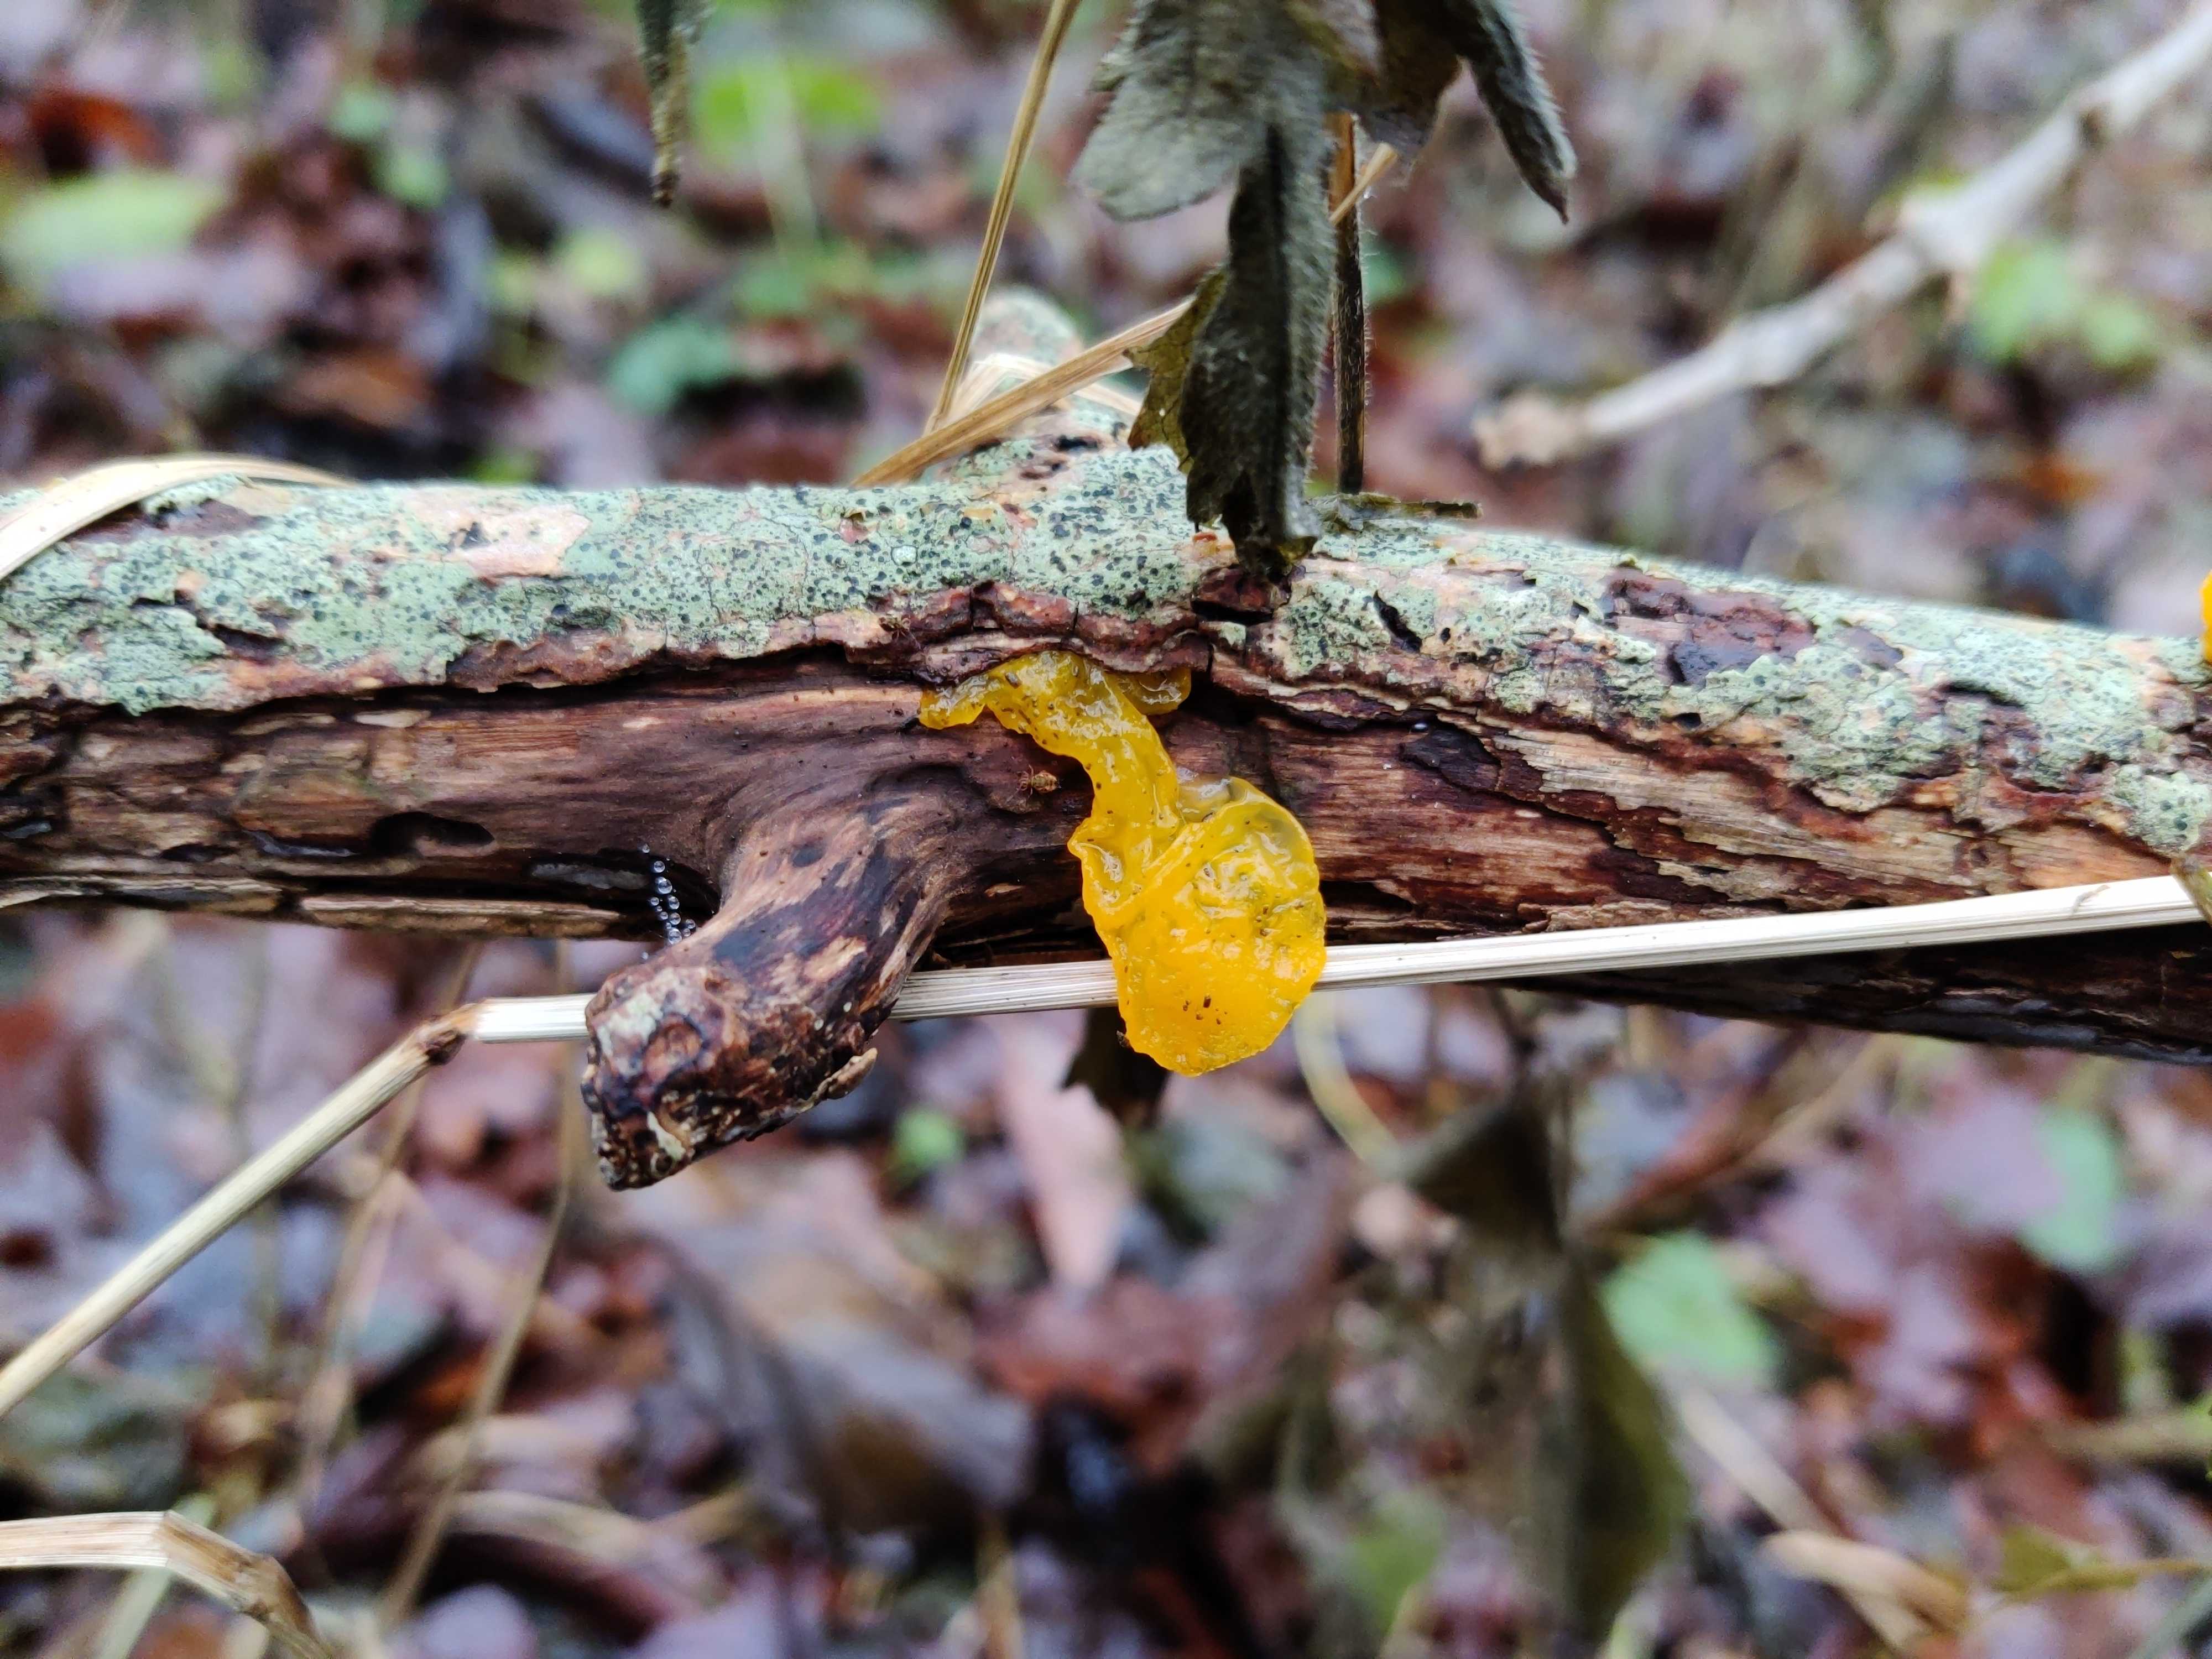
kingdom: Fungi
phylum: Basidiomycota
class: Tremellomycetes
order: Tremellales
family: Tremellaceae
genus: Tremella
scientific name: Tremella mesenterica
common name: gul bævresvamp
